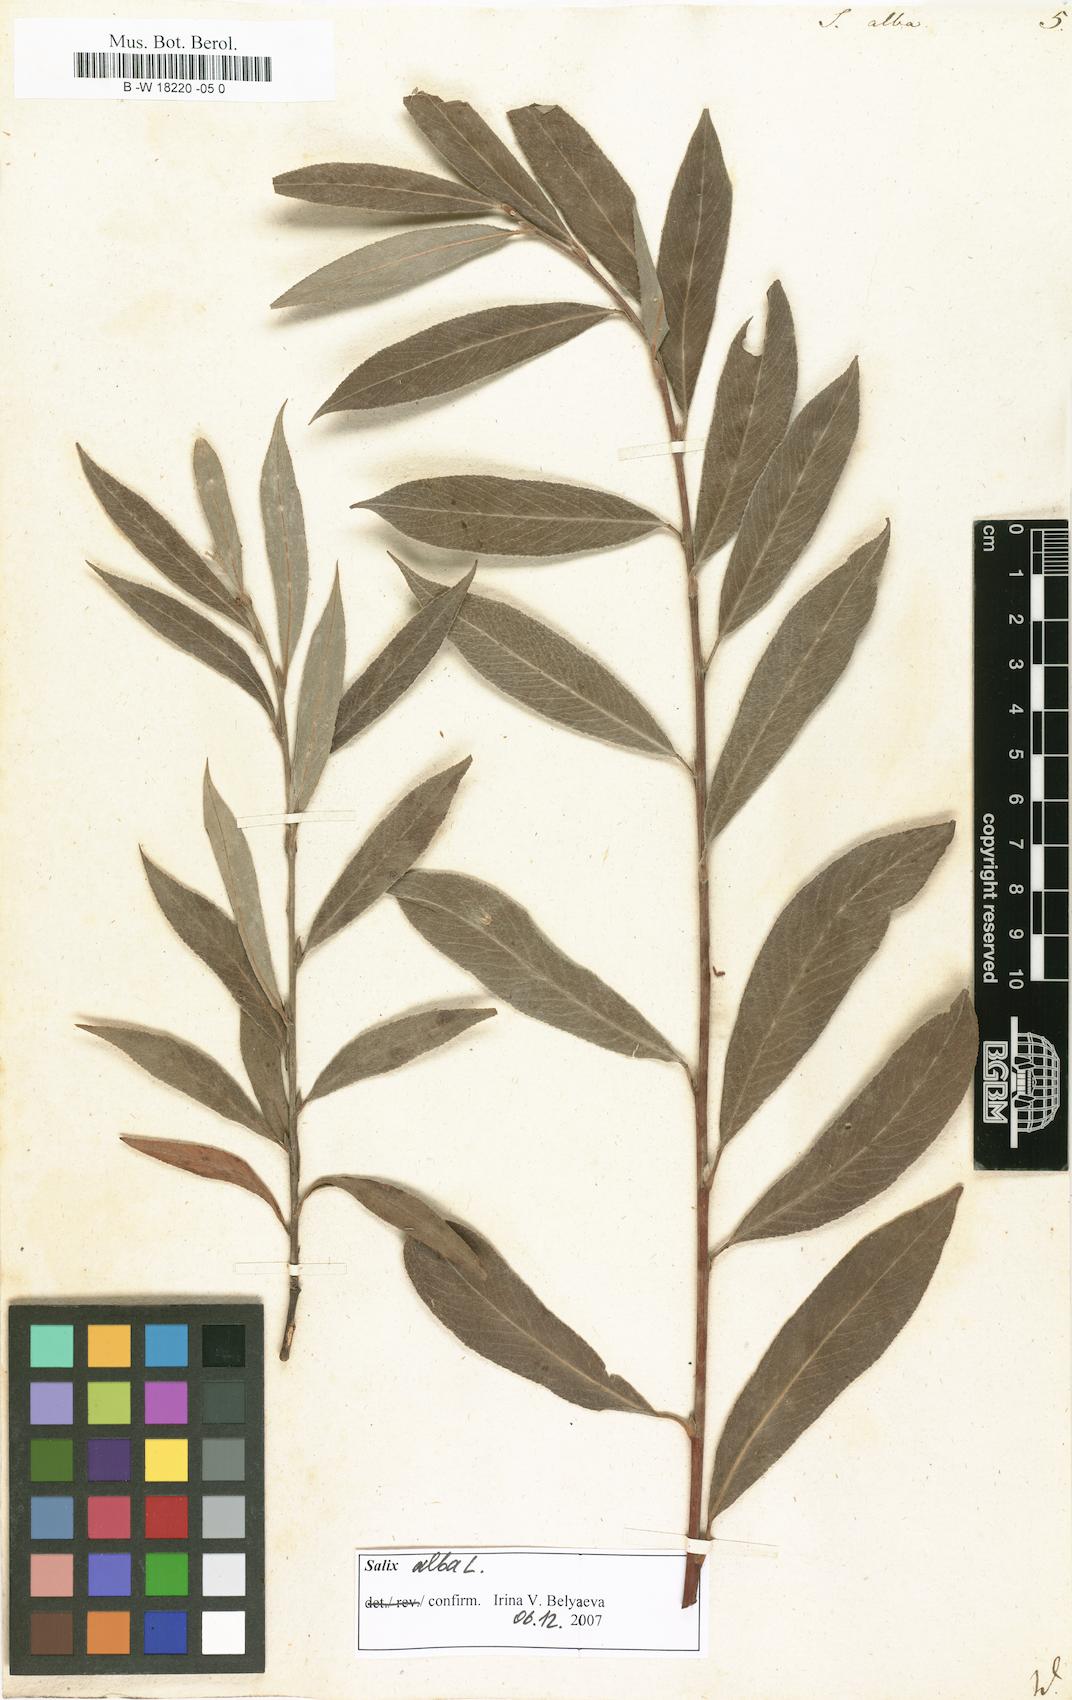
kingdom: Plantae
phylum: Tracheophyta
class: Magnoliopsida
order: Malpighiales
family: Salicaceae
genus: Salix
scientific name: Salix alba
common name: White willow
